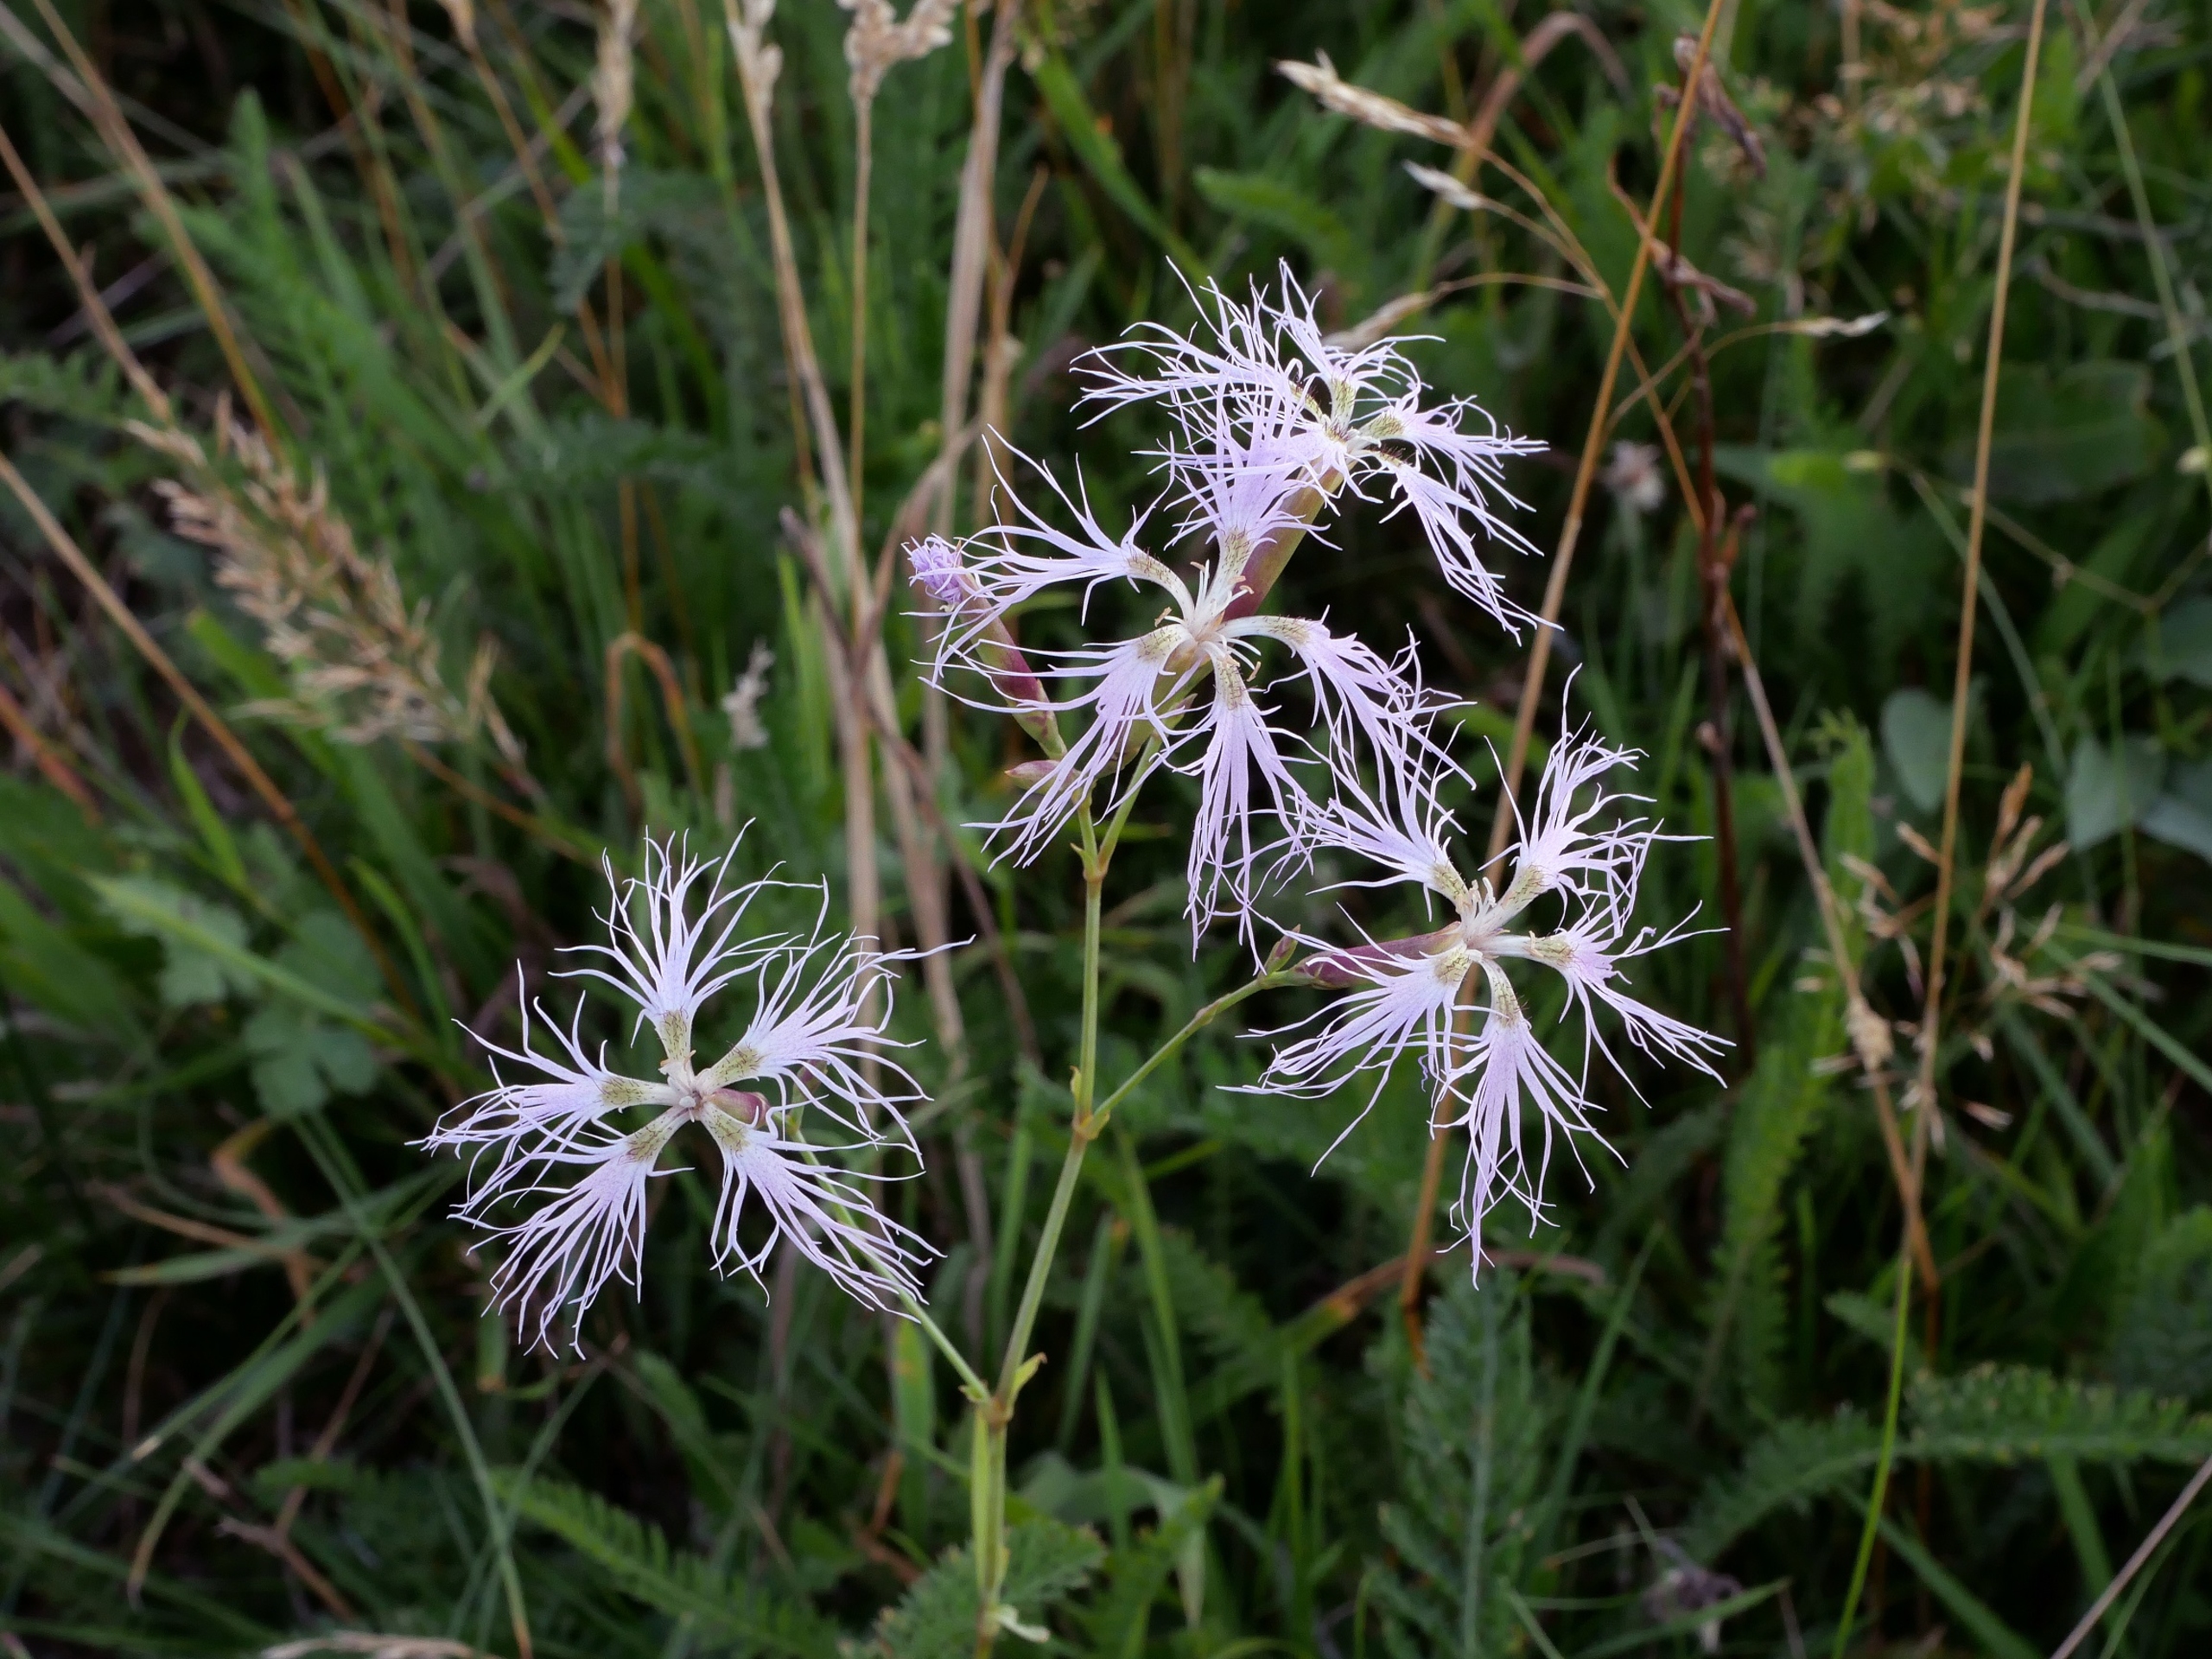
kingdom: Plantae
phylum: Tracheophyta
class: Magnoliopsida
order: Caryophyllales
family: Caryophyllaceae
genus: Dianthus
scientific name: Dianthus superbus
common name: Strand-nellike
